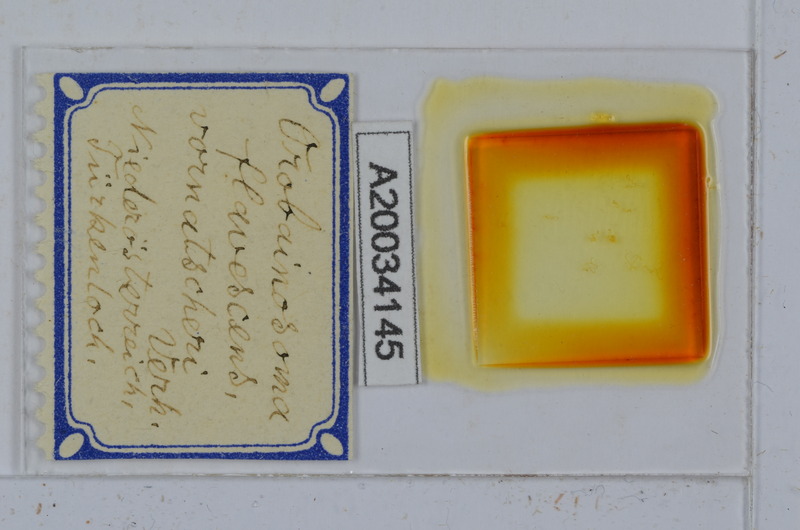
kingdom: Animalia
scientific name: Animalia
